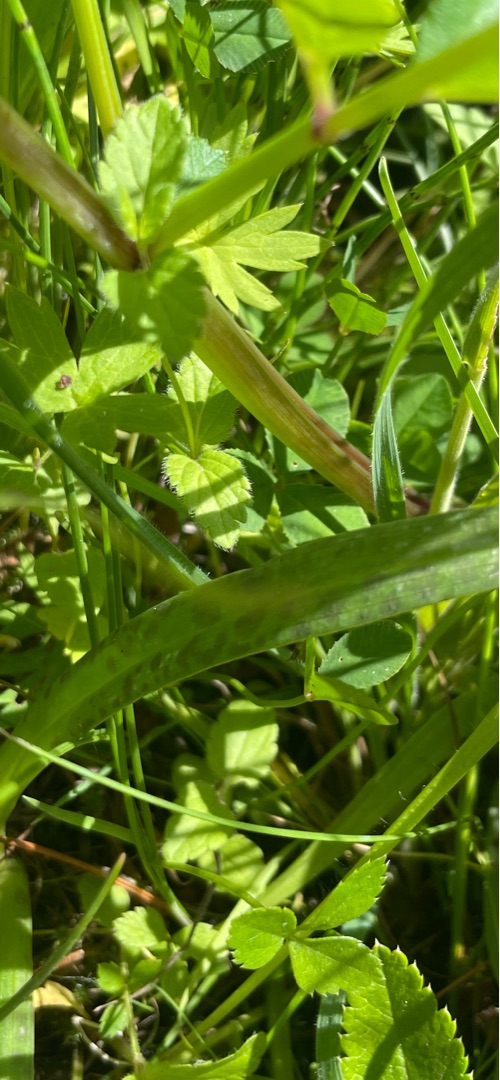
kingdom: Plantae
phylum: Tracheophyta
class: Liliopsida
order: Asparagales
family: Orchidaceae
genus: Dactylorhiza
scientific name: Dactylorhiza majalis
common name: Ringplettet gøgeurt
